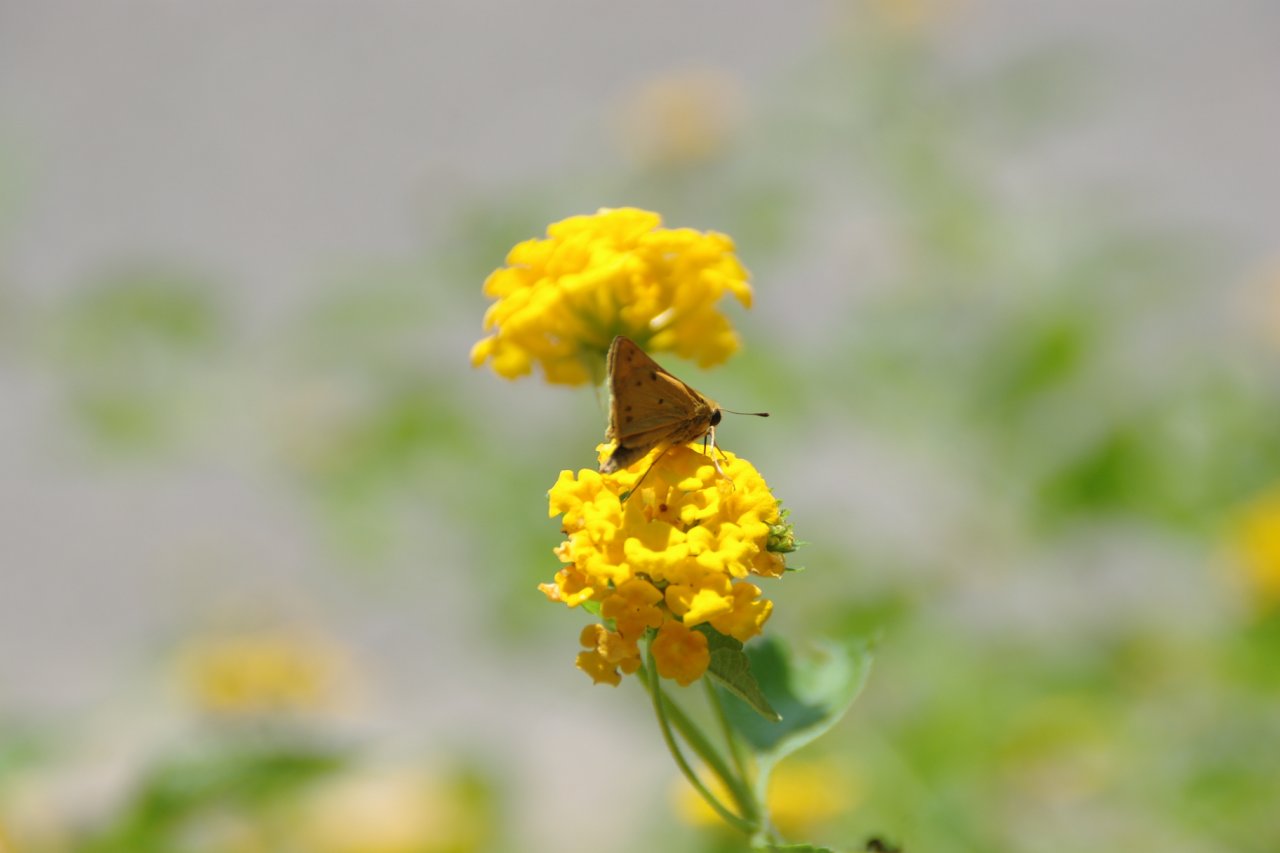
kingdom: Animalia
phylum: Arthropoda
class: Insecta
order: Lepidoptera
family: Hesperiidae
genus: Hylephila
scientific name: Hylephila phyleus
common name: Fiery Skipper
